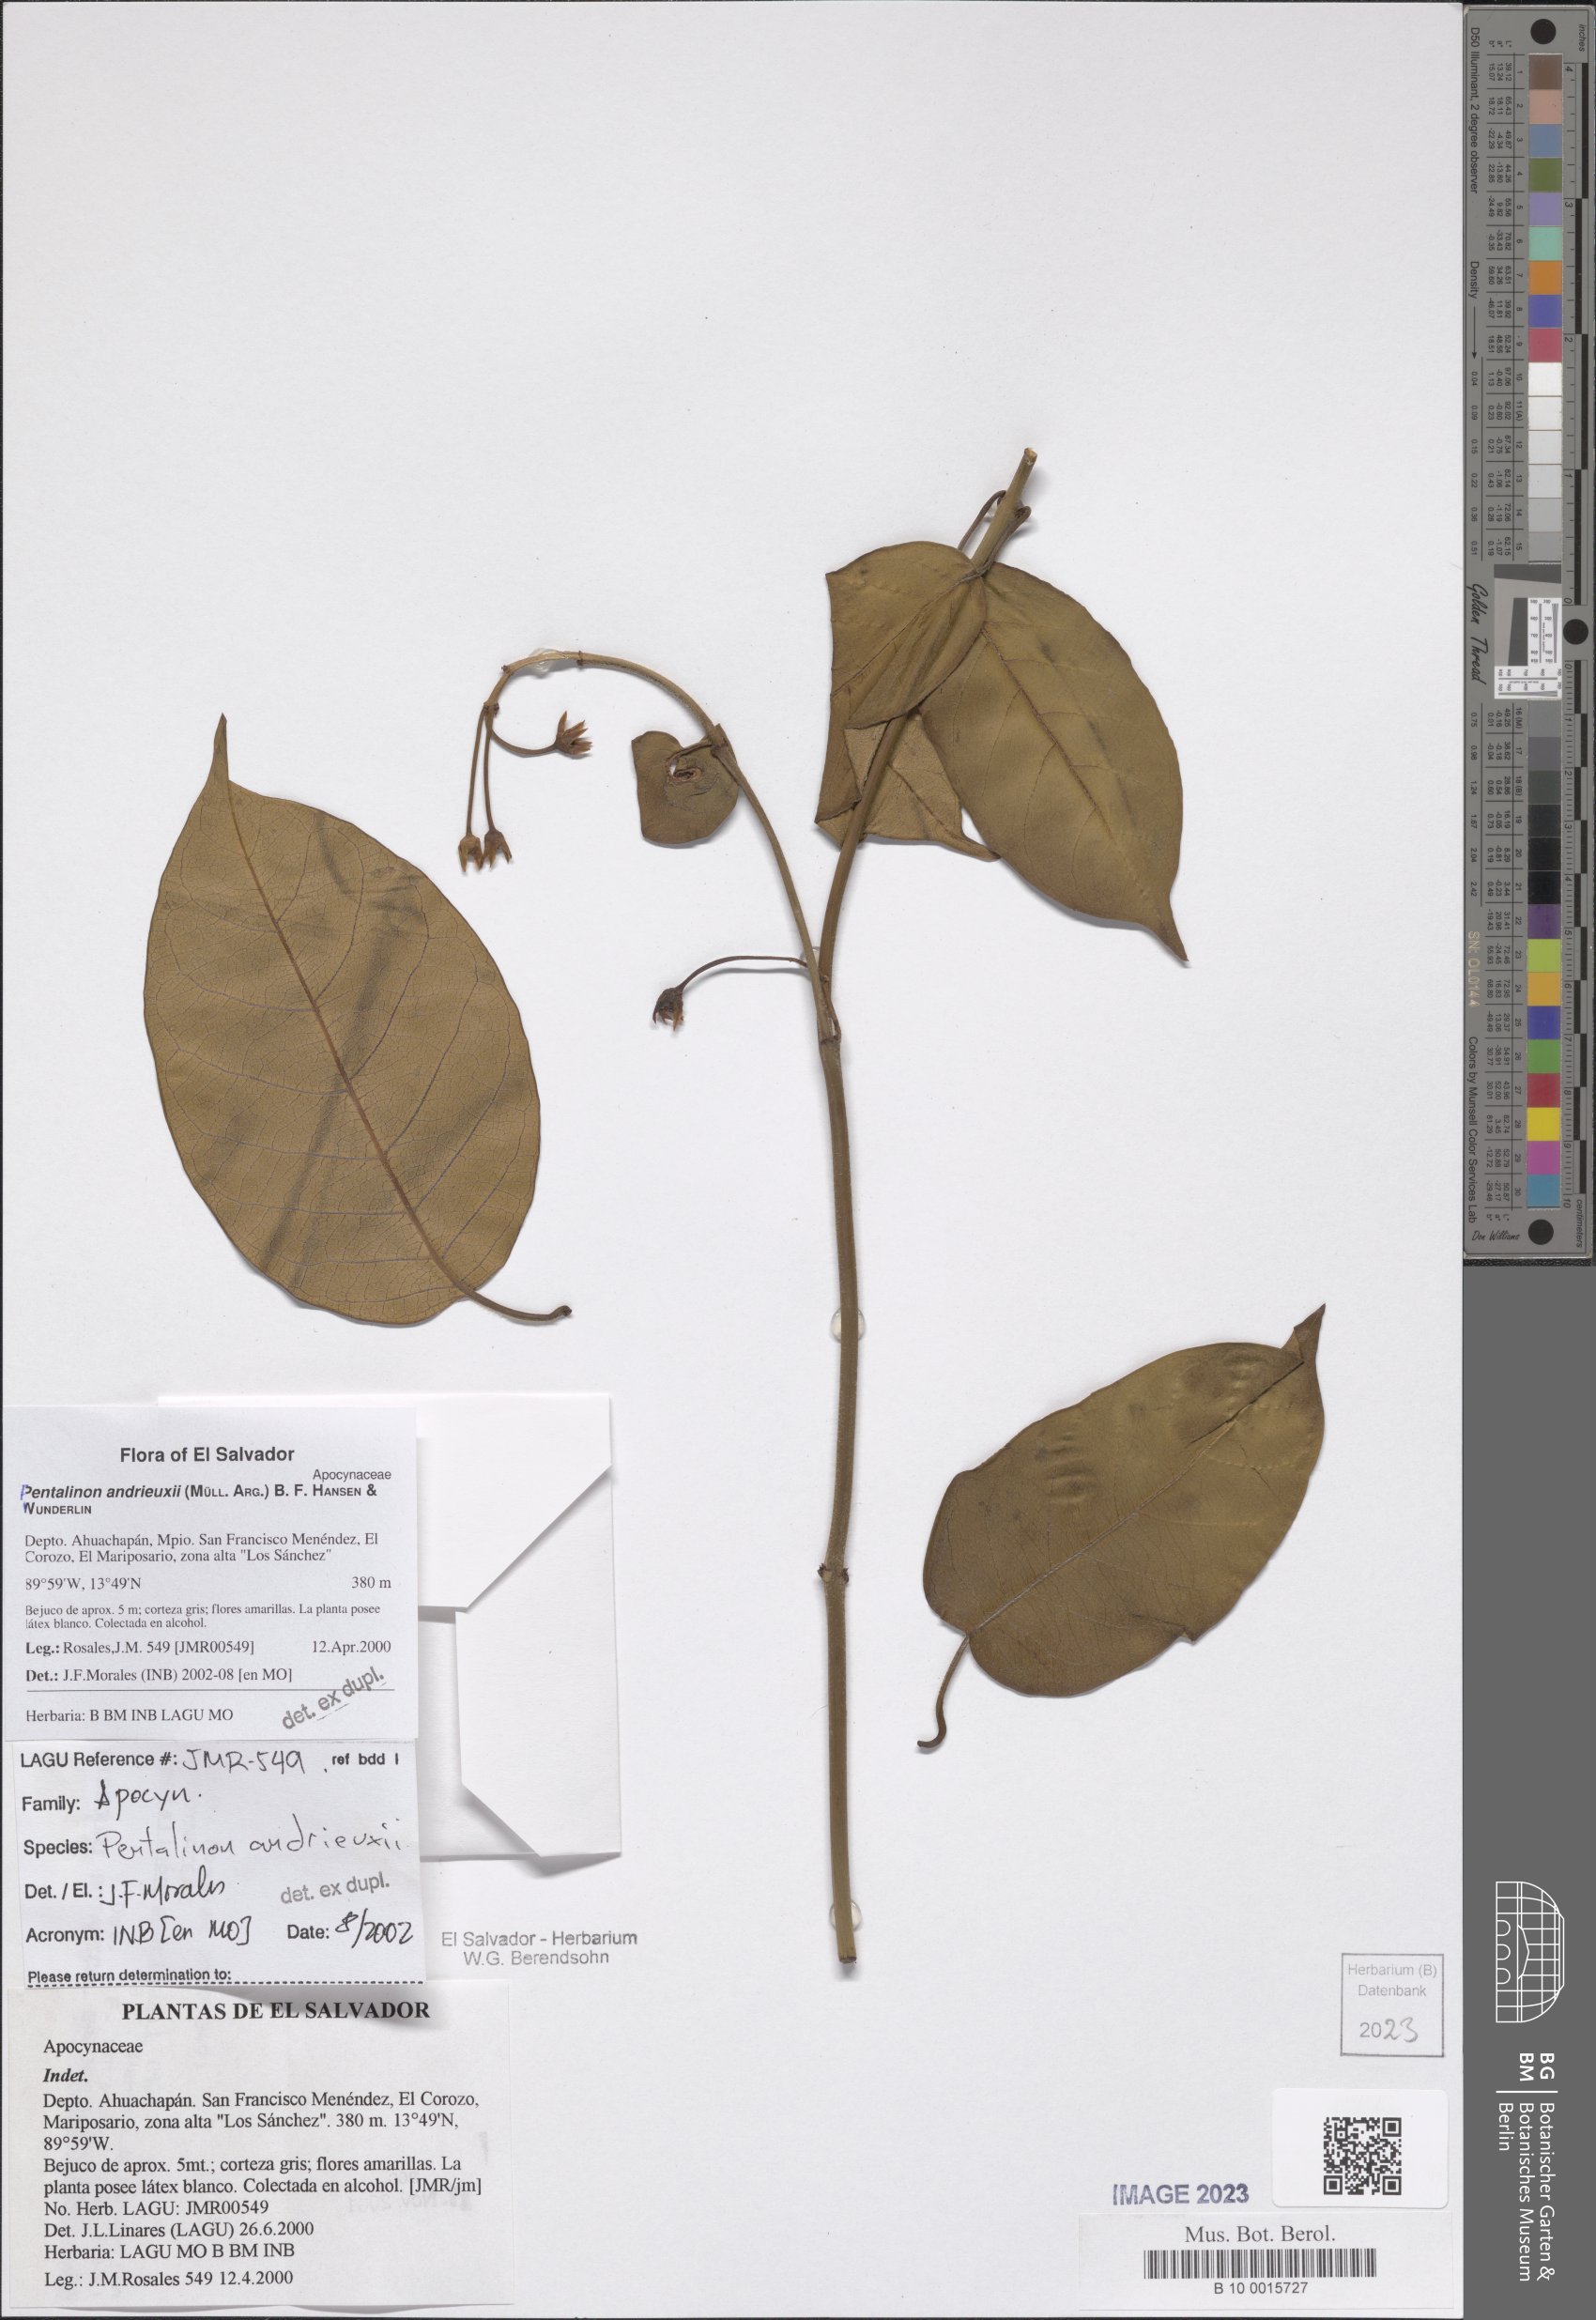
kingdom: Plantae
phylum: Tracheophyta
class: Magnoliopsida
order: Gentianales
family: Apocynaceae
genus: Pentalinon
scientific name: Pentalinon andrieuxii
